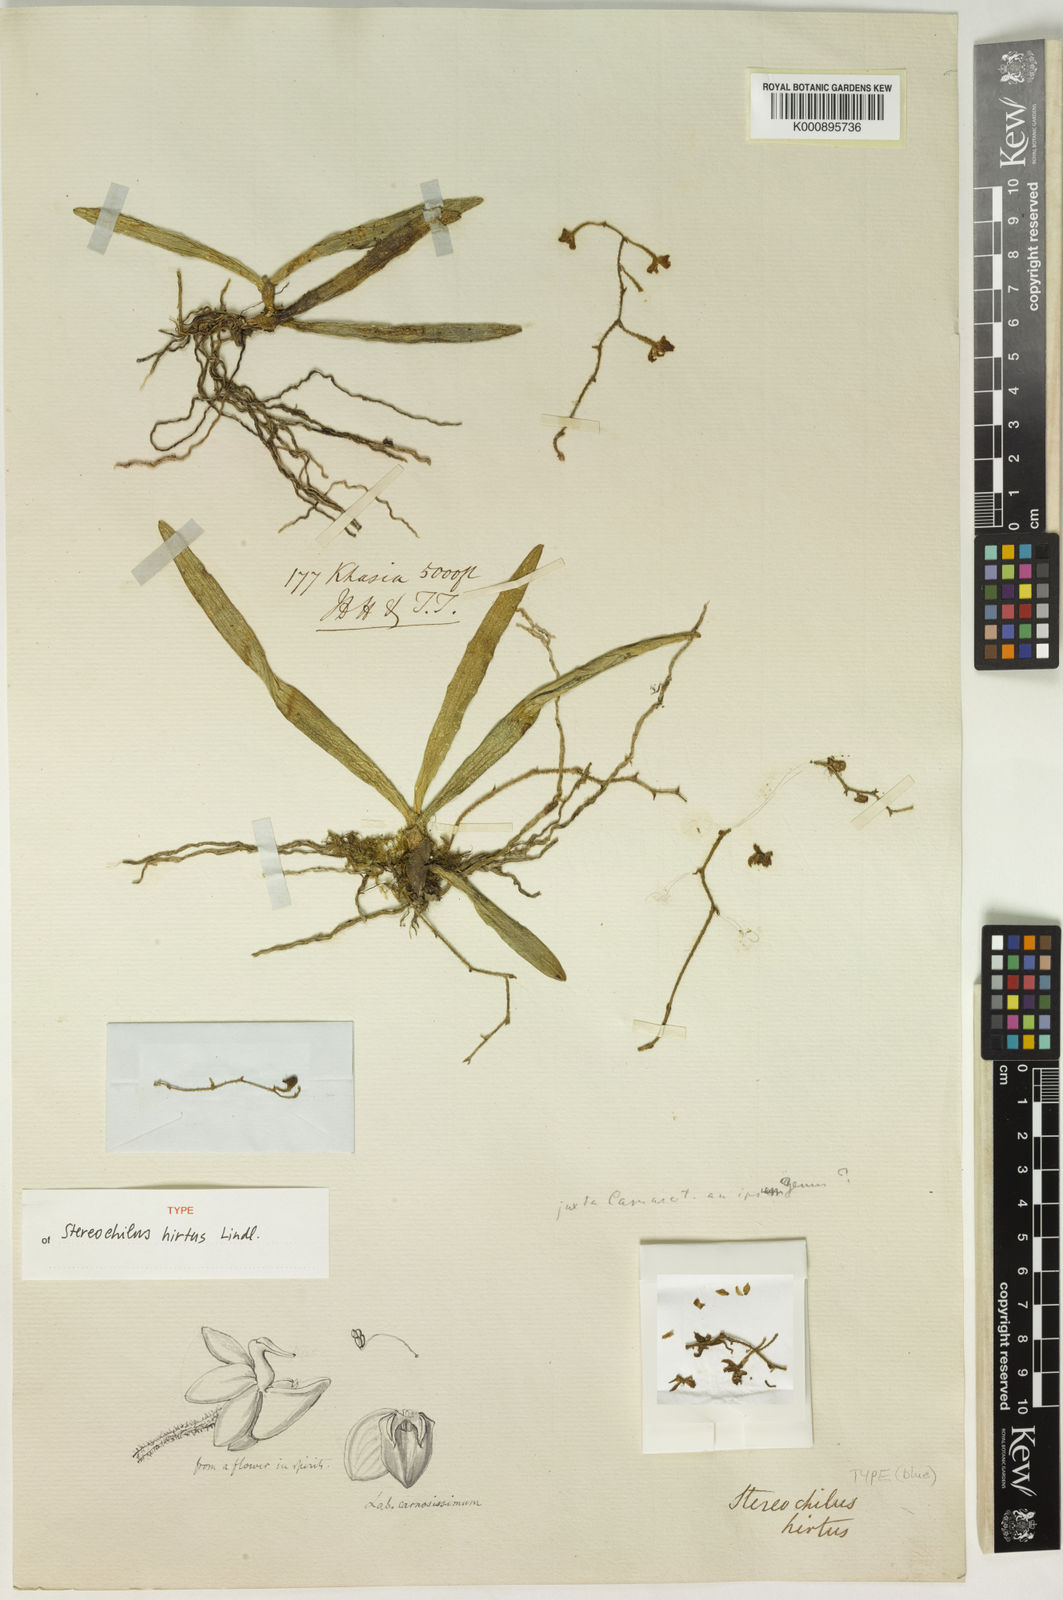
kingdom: Plantae
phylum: Tracheophyta
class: Liliopsida
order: Asparagales
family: Orchidaceae
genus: Stereochilus
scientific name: Stereochilus hirtus
